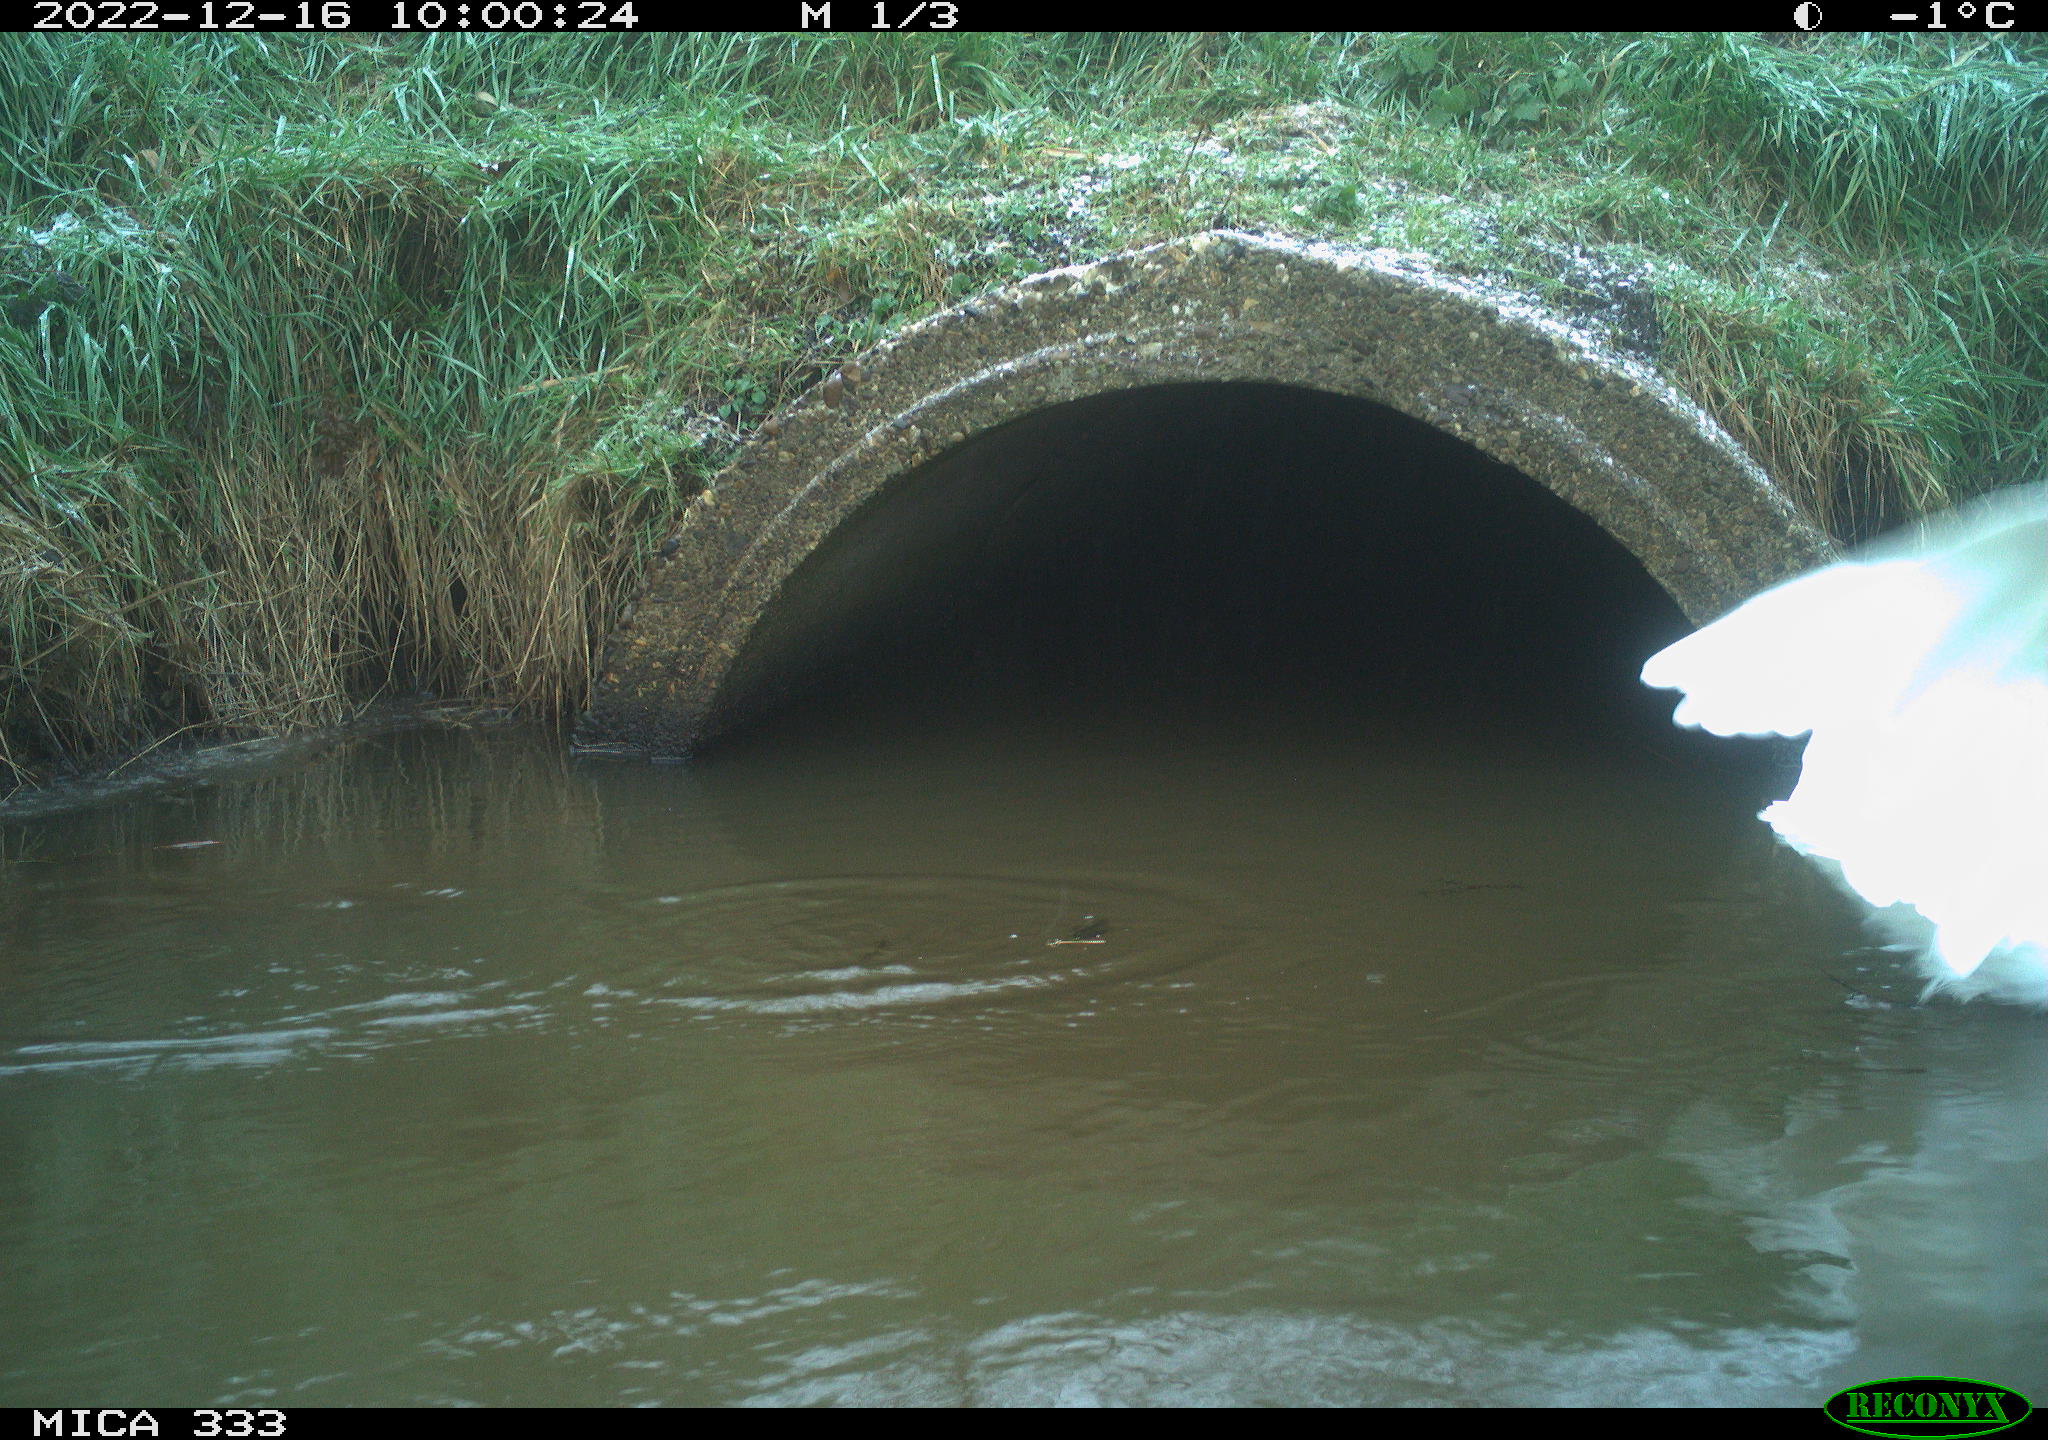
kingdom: Animalia
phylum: Chordata
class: Aves
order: Pelecaniformes
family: Ardeidae
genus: Ardea
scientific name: Ardea alba
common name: Great egret
